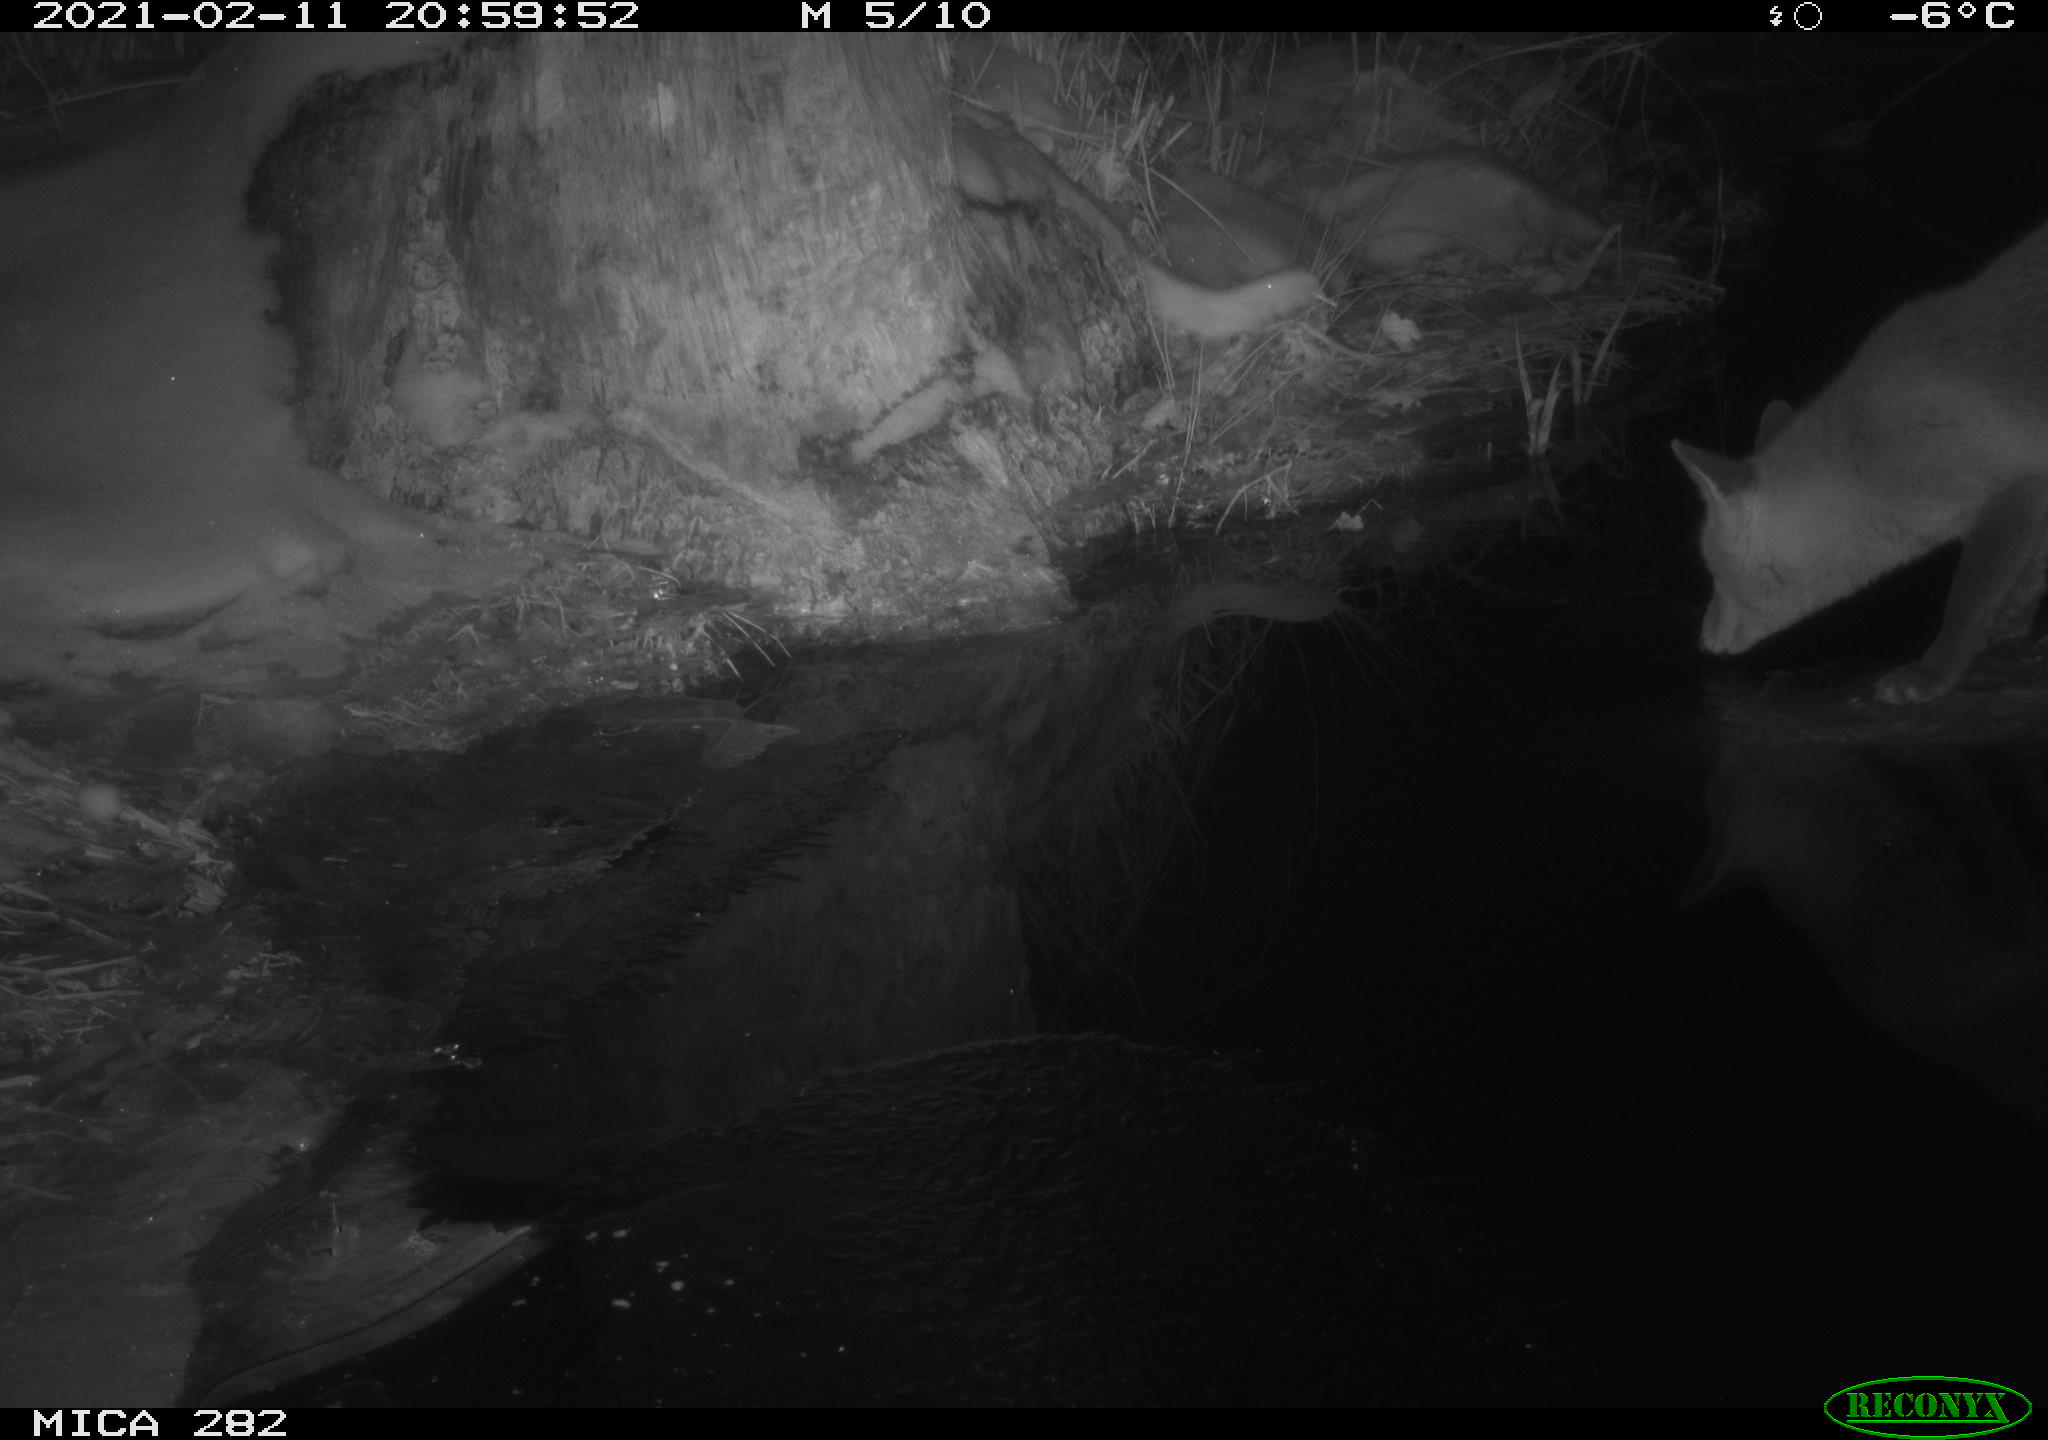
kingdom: Animalia
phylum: Chordata
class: Mammalia
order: Carnivora
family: Canidae
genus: Vulpes
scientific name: Vulpes vulpes
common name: Red fox
